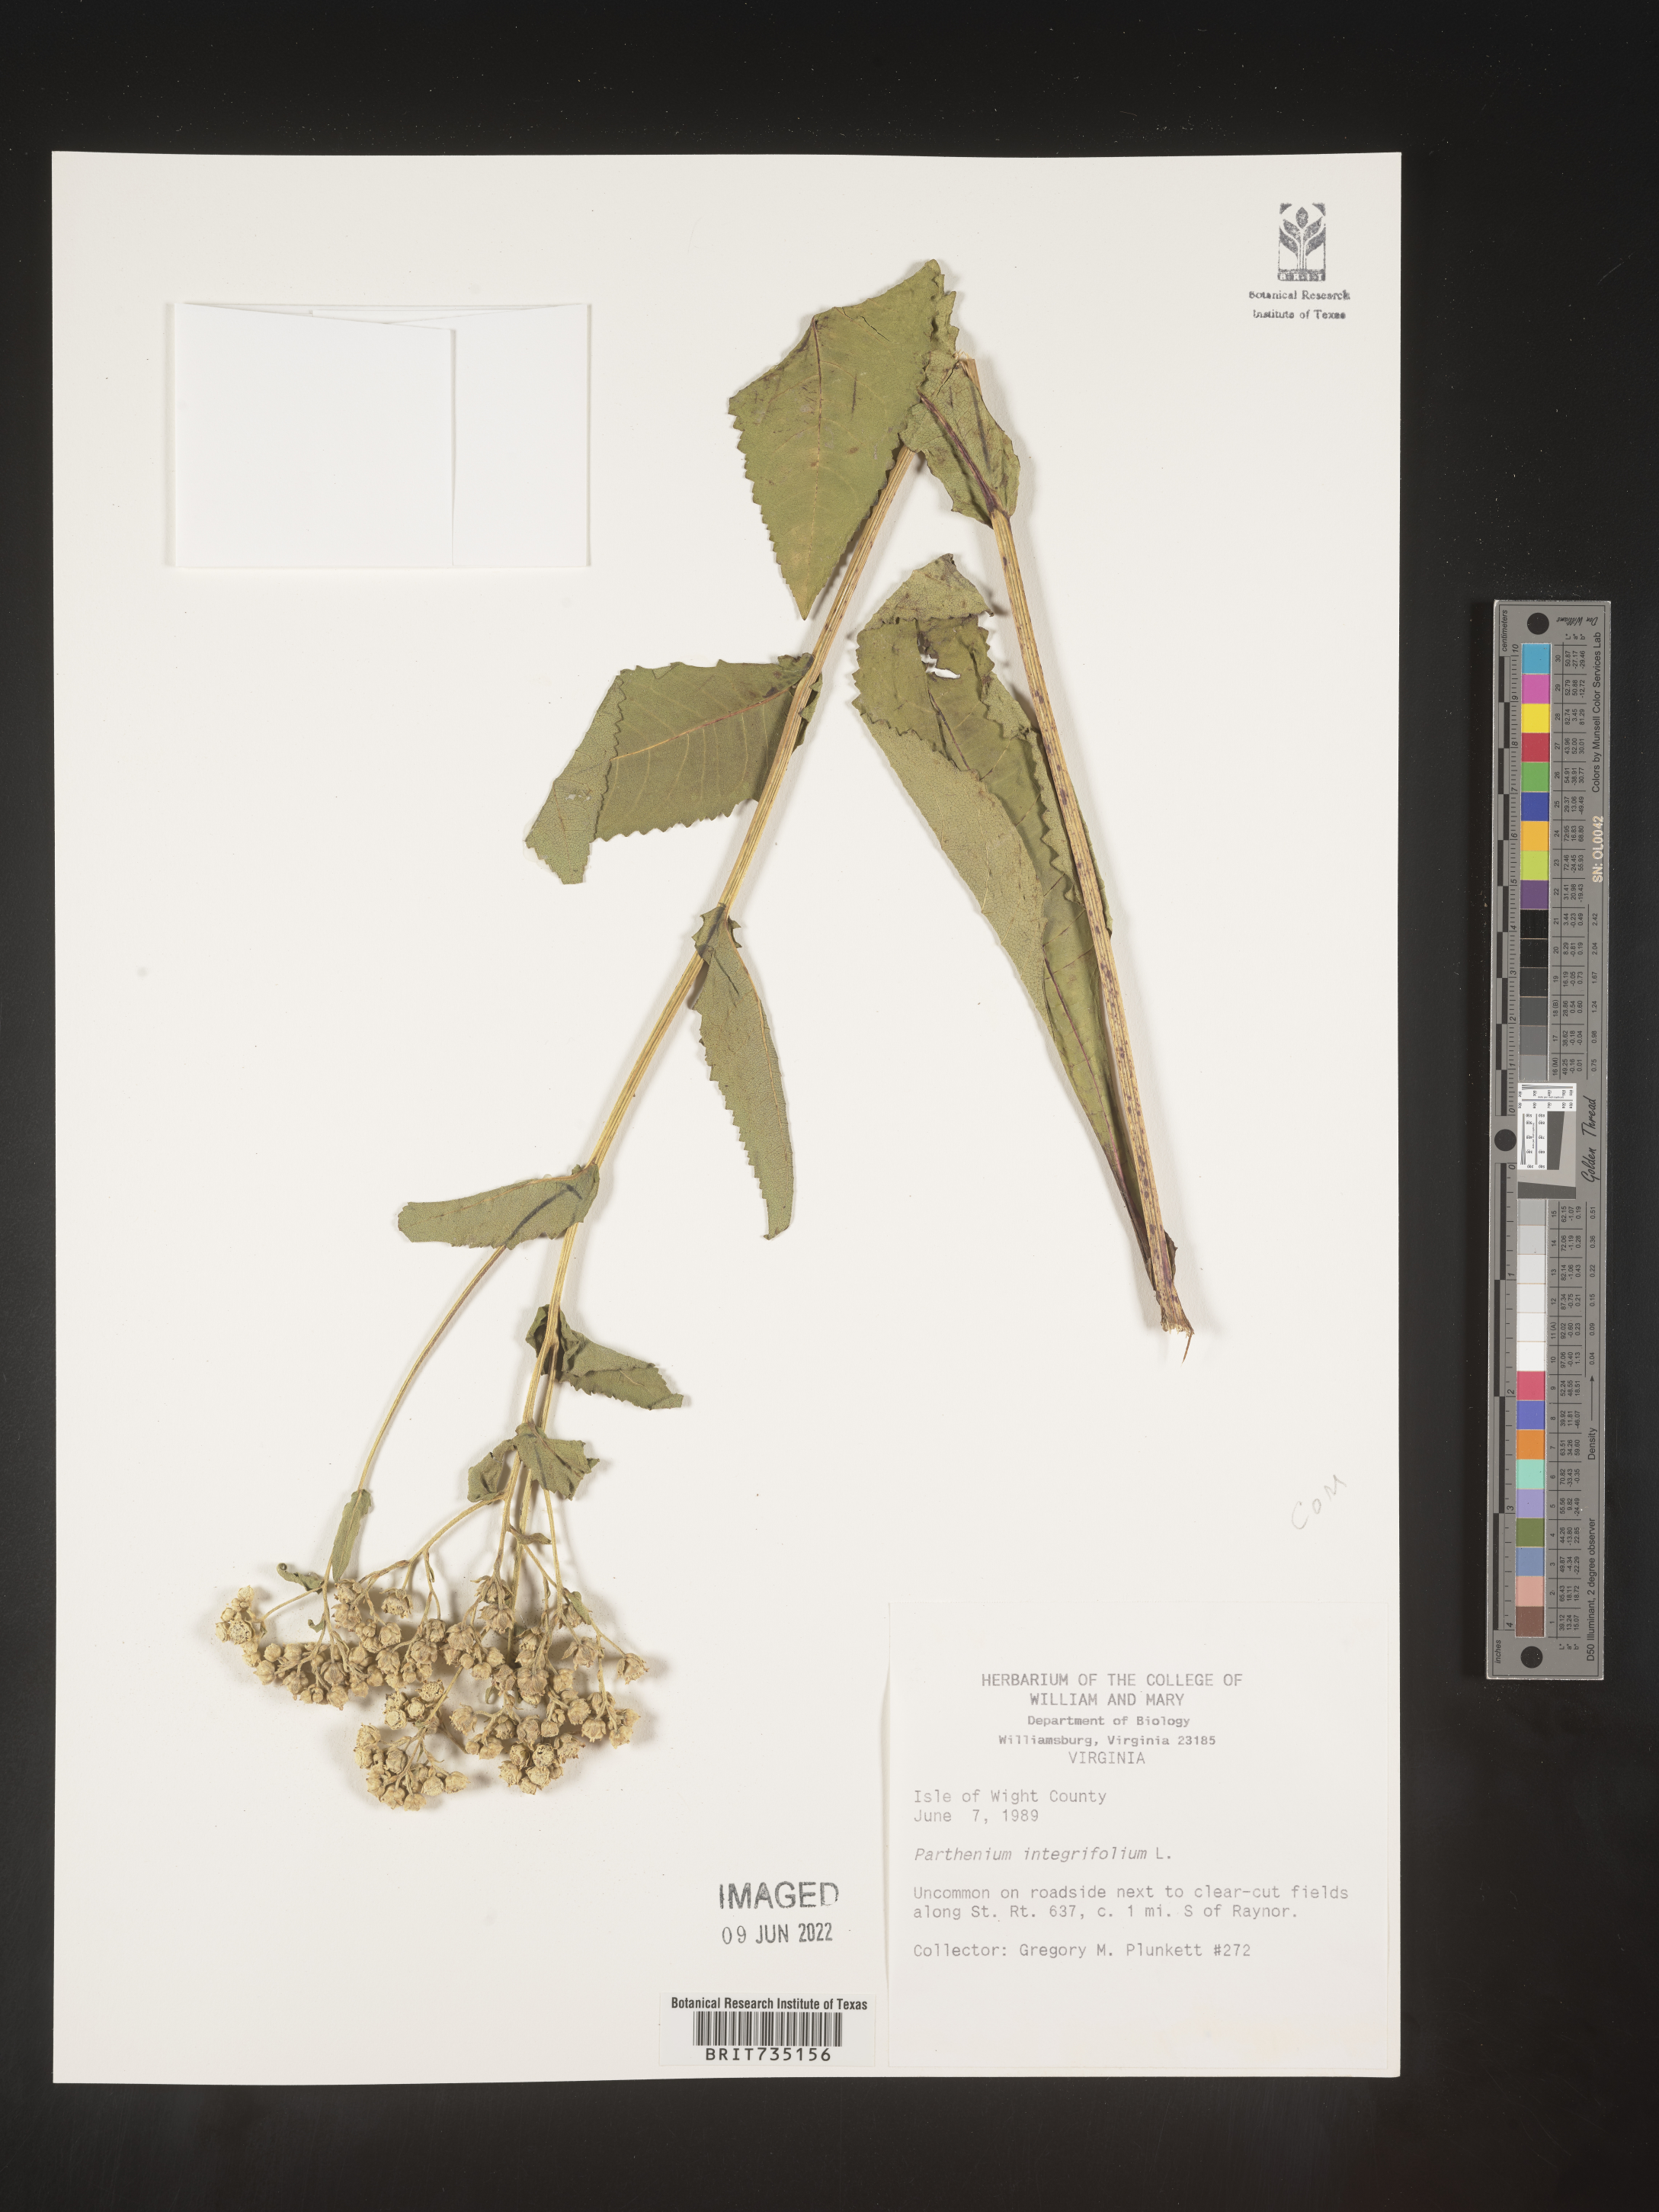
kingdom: Plantae
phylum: Tracheophyta
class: Magnoliopsida
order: Asterales
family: Asteraceae
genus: Parthenium
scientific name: Parthenium integrifolium
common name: American feverfew
